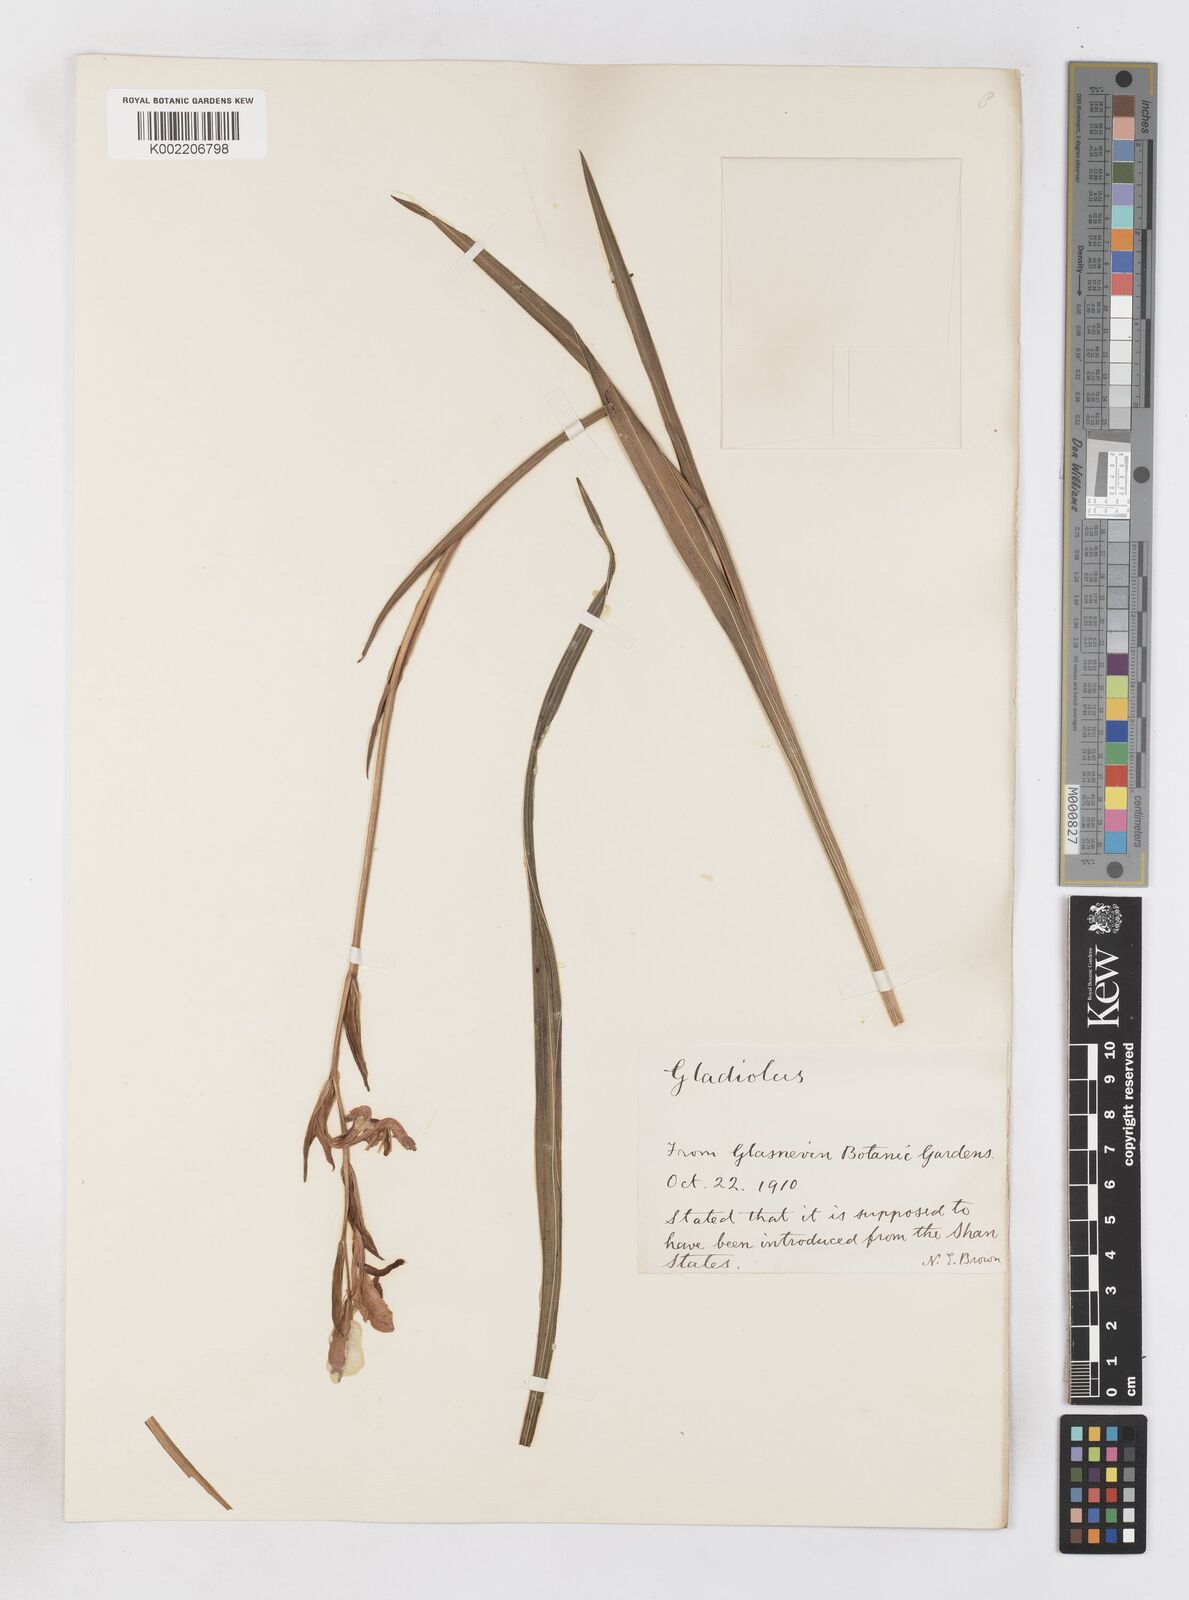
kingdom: Plantae
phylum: Tracheophyta
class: Liliopsida
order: Asparagales
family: Iridaceae
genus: Gladiolus
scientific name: Gladiolus
